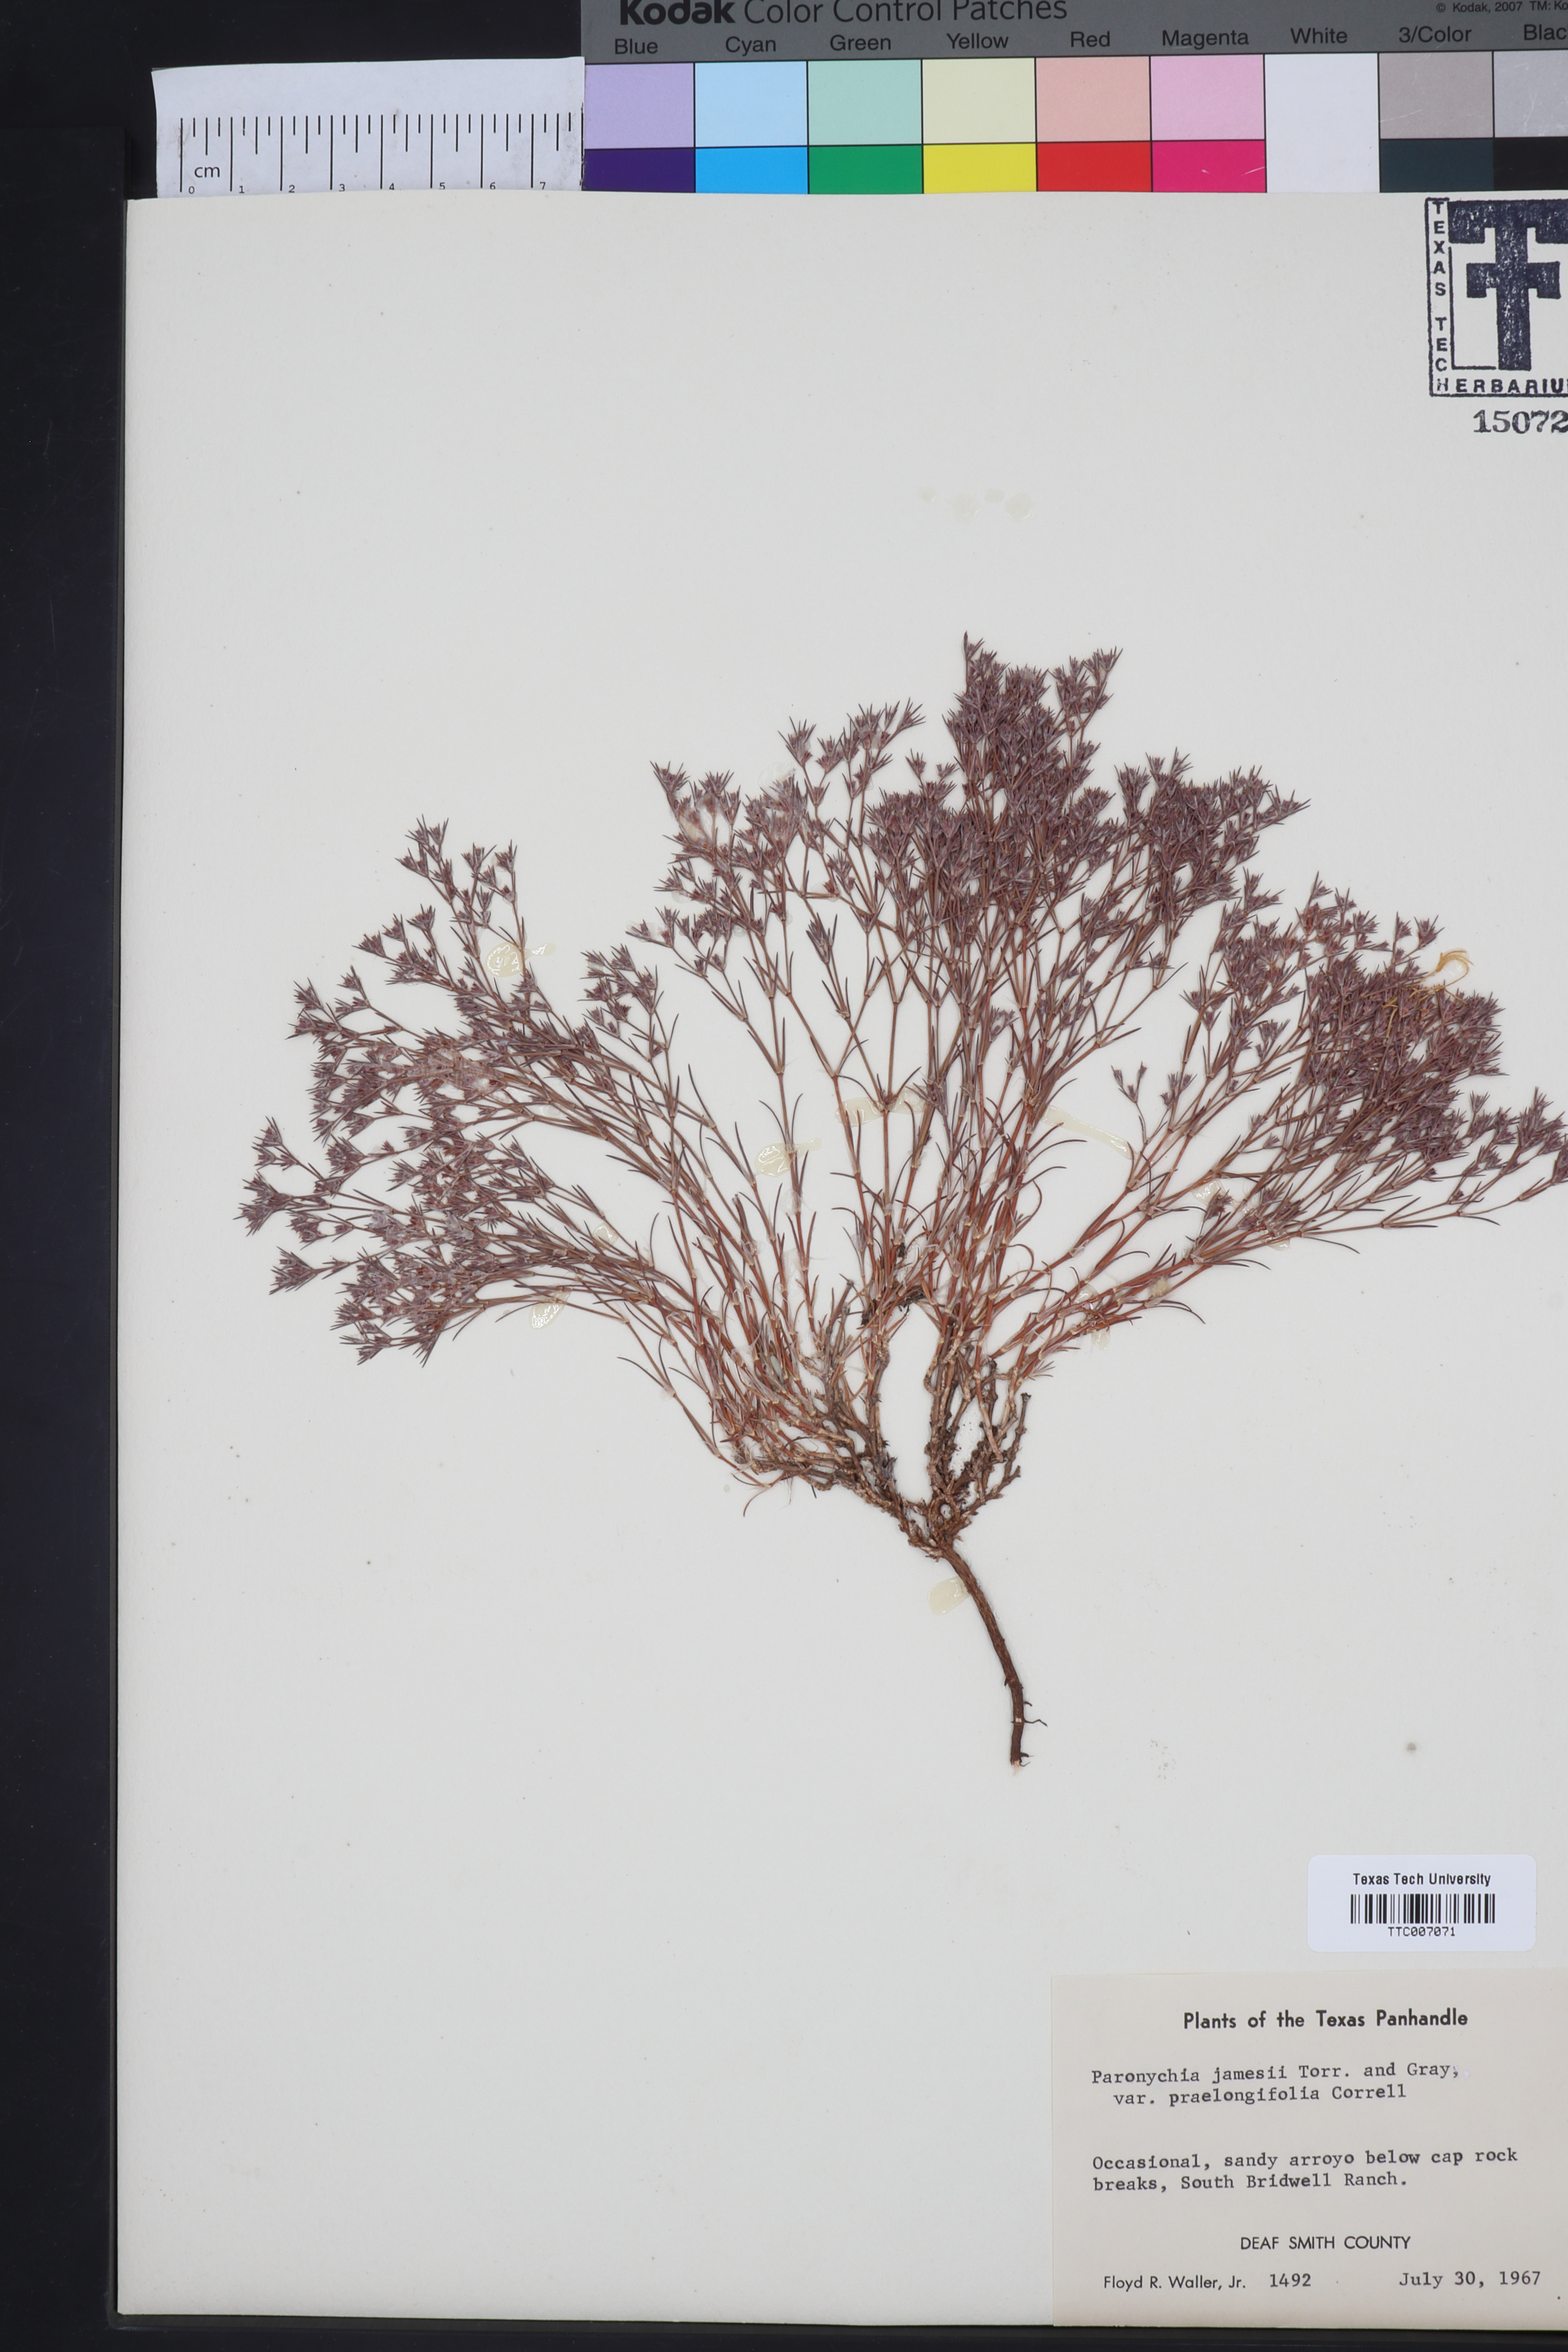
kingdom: Plantae
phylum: Tracheophyta
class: Magnoliopsida
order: Caryophyllales
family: Caryophyllaceae
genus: Paronychia
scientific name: Paronychia jamesii
